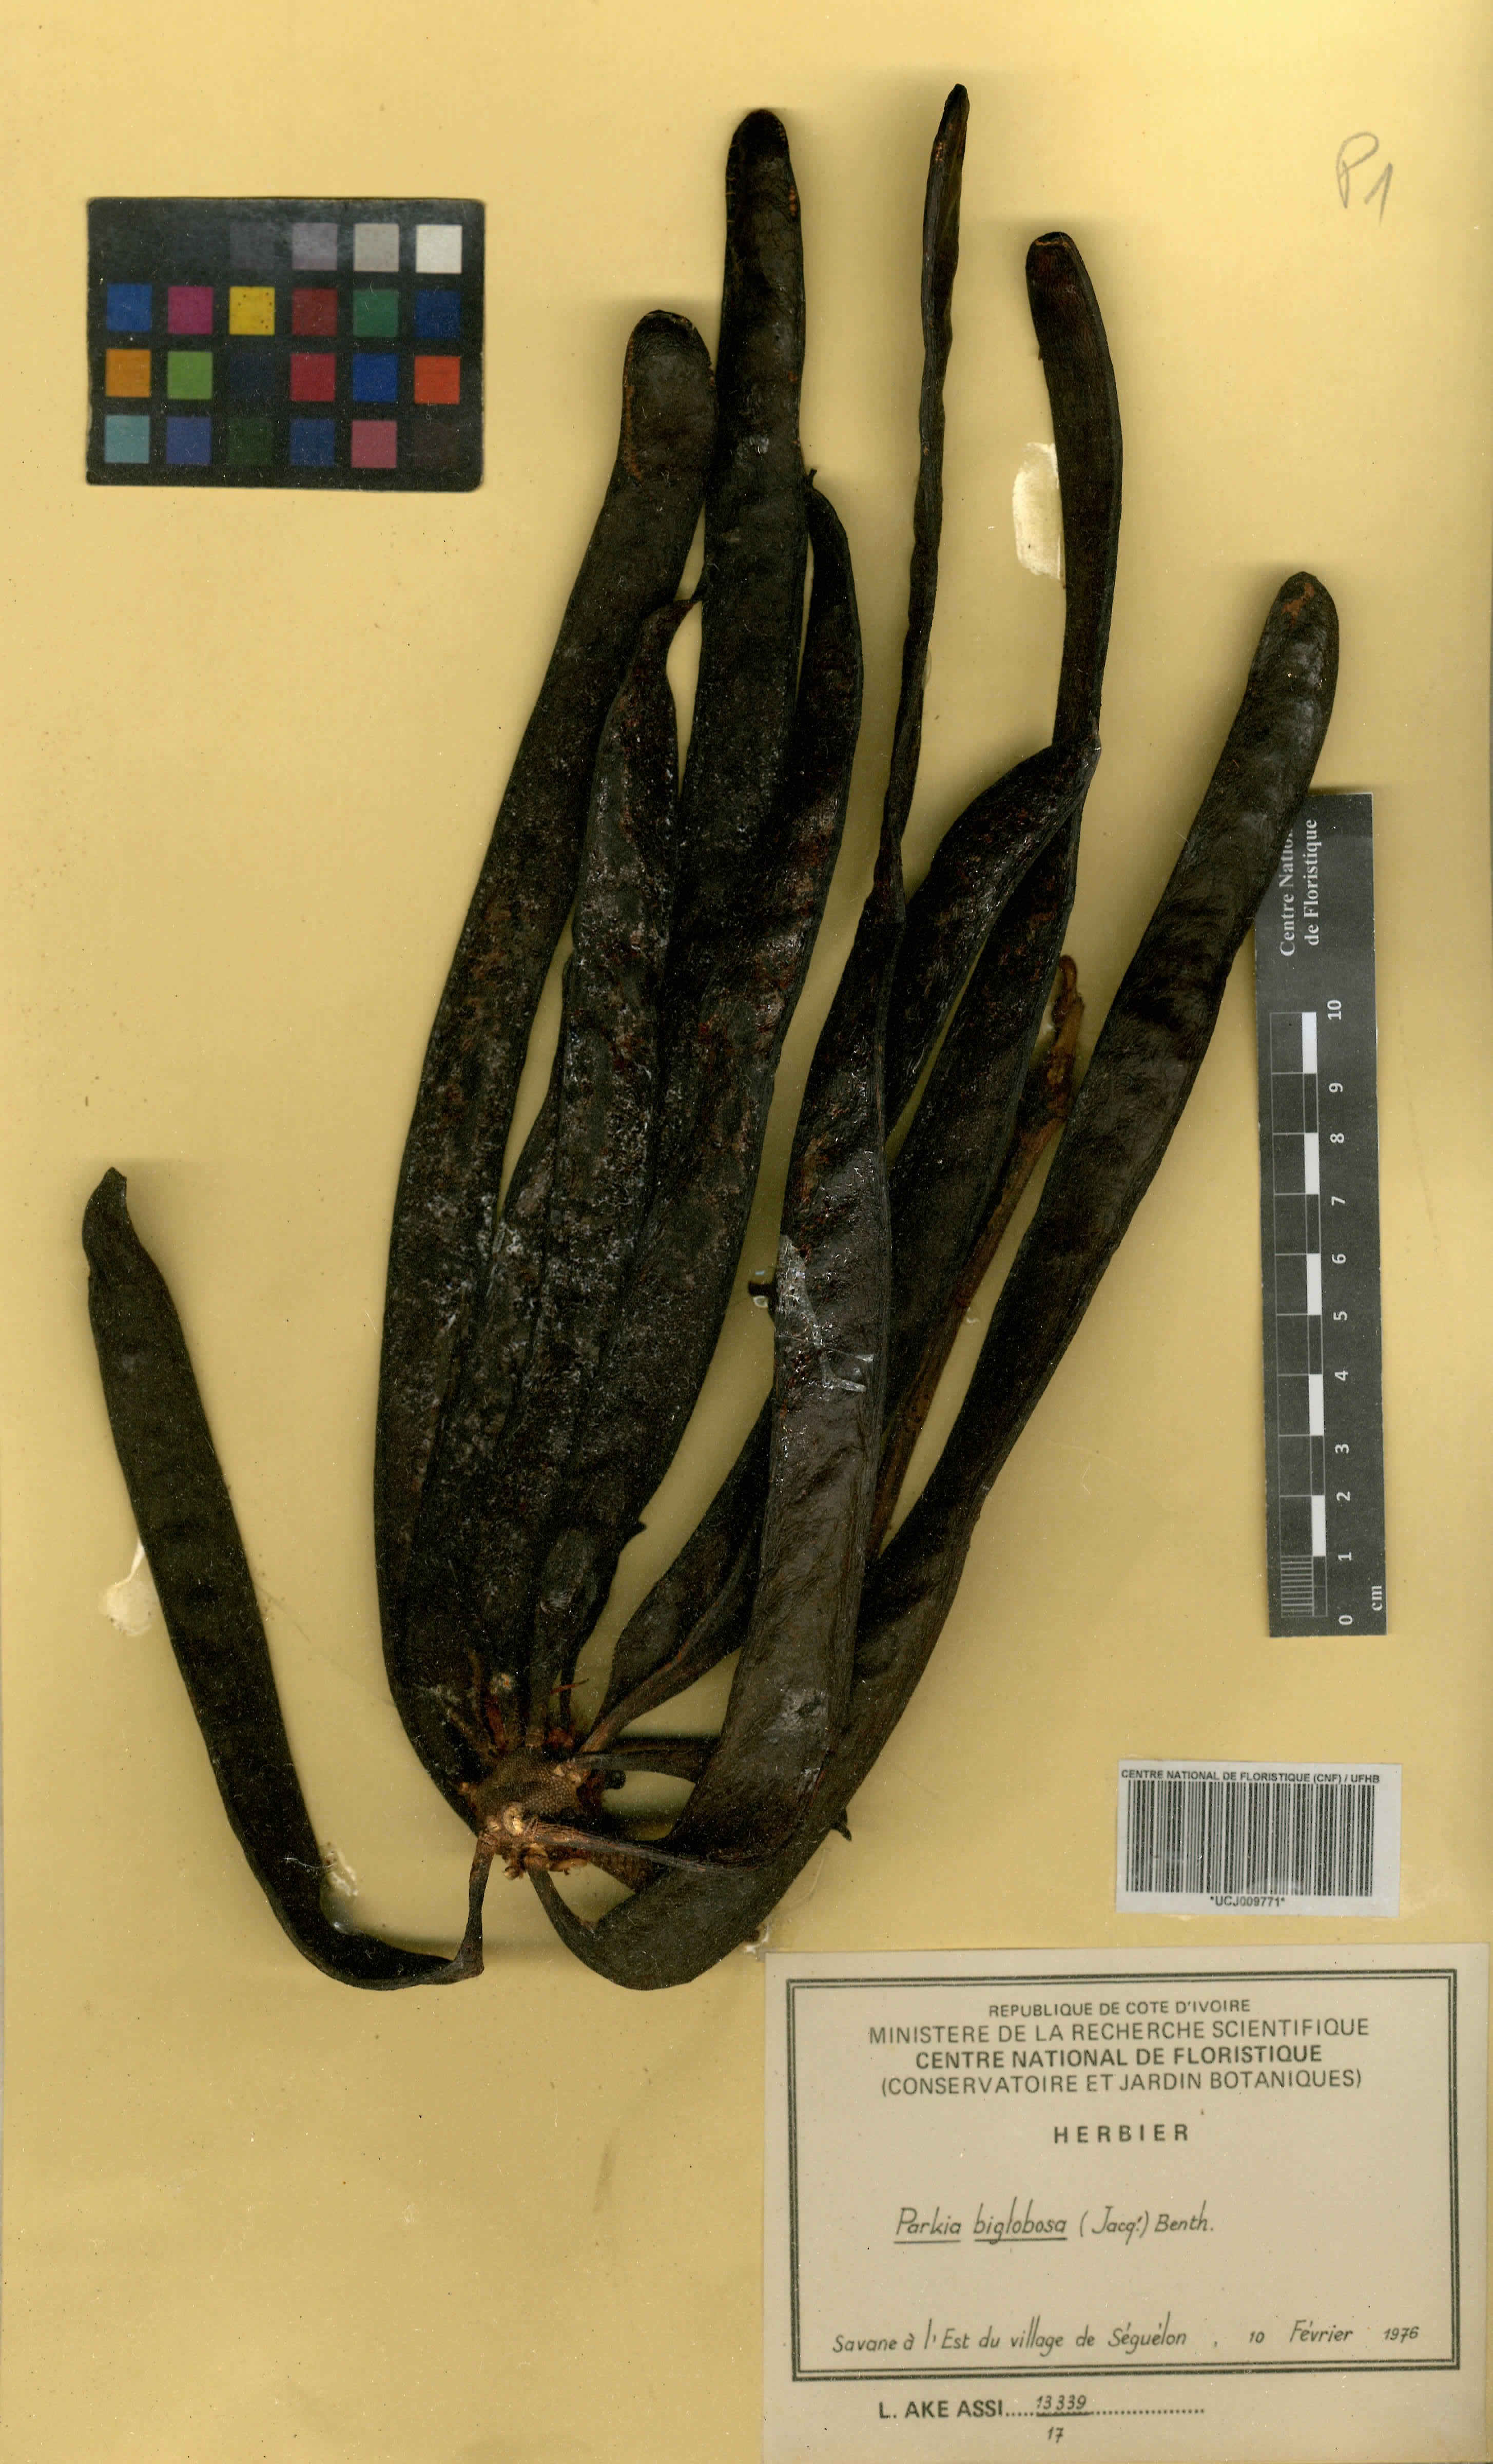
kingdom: Plantae
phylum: Tracheophyta
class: Magnoliopsida
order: Fabales
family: Fabaceae
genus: Parkia
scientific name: Parkia timoriana
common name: Legume
